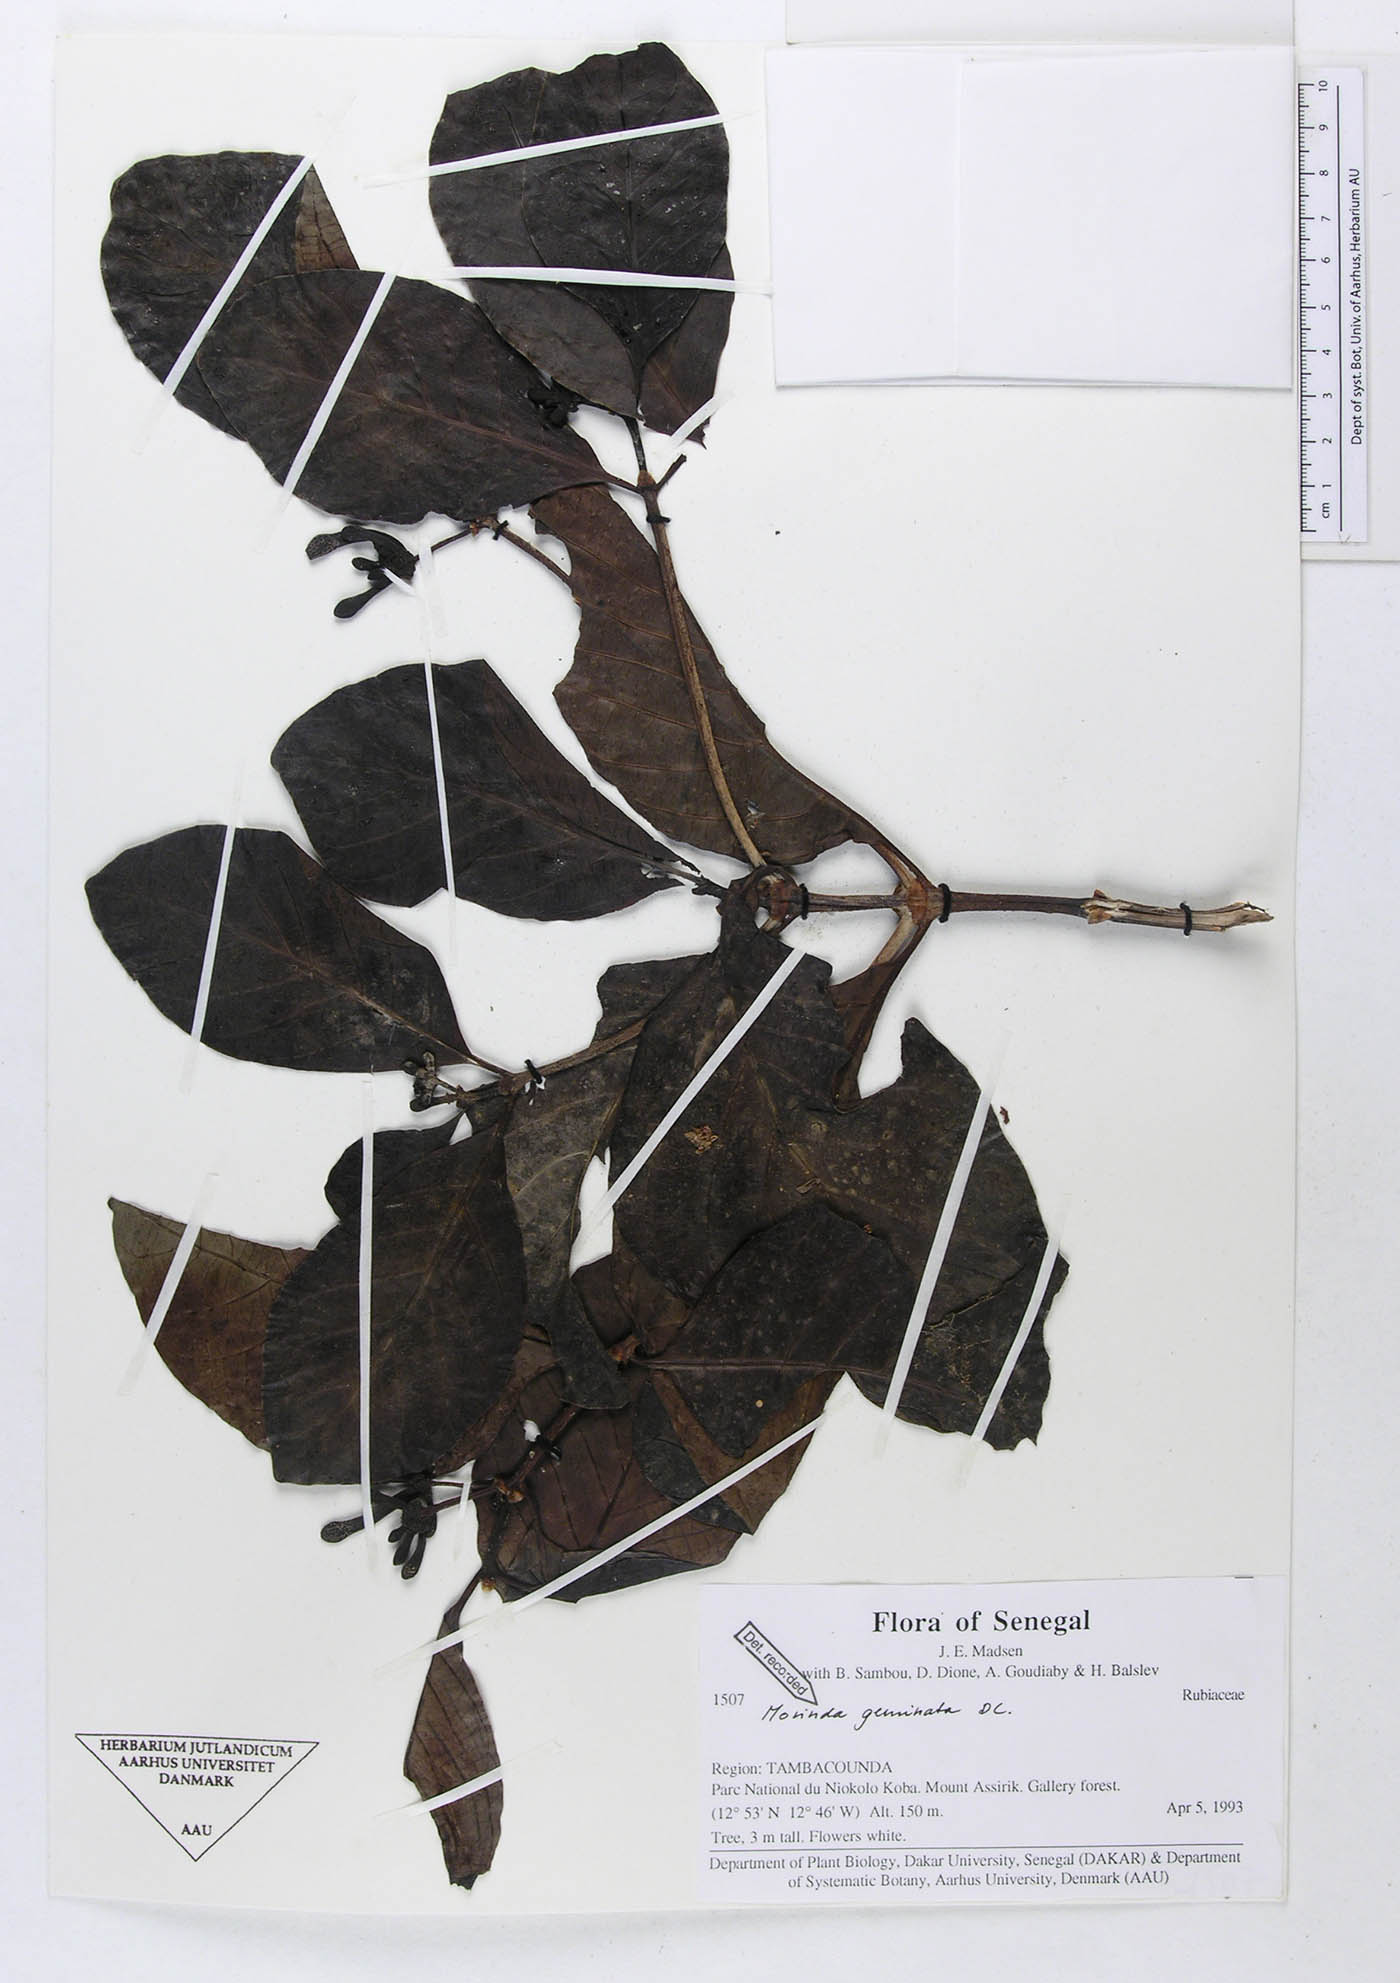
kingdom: Plantae
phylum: Tracheophyta
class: Magnoliopsida
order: Gentianales
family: Rubiaceae
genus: Morinda
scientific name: Morinda chrysorhiza
